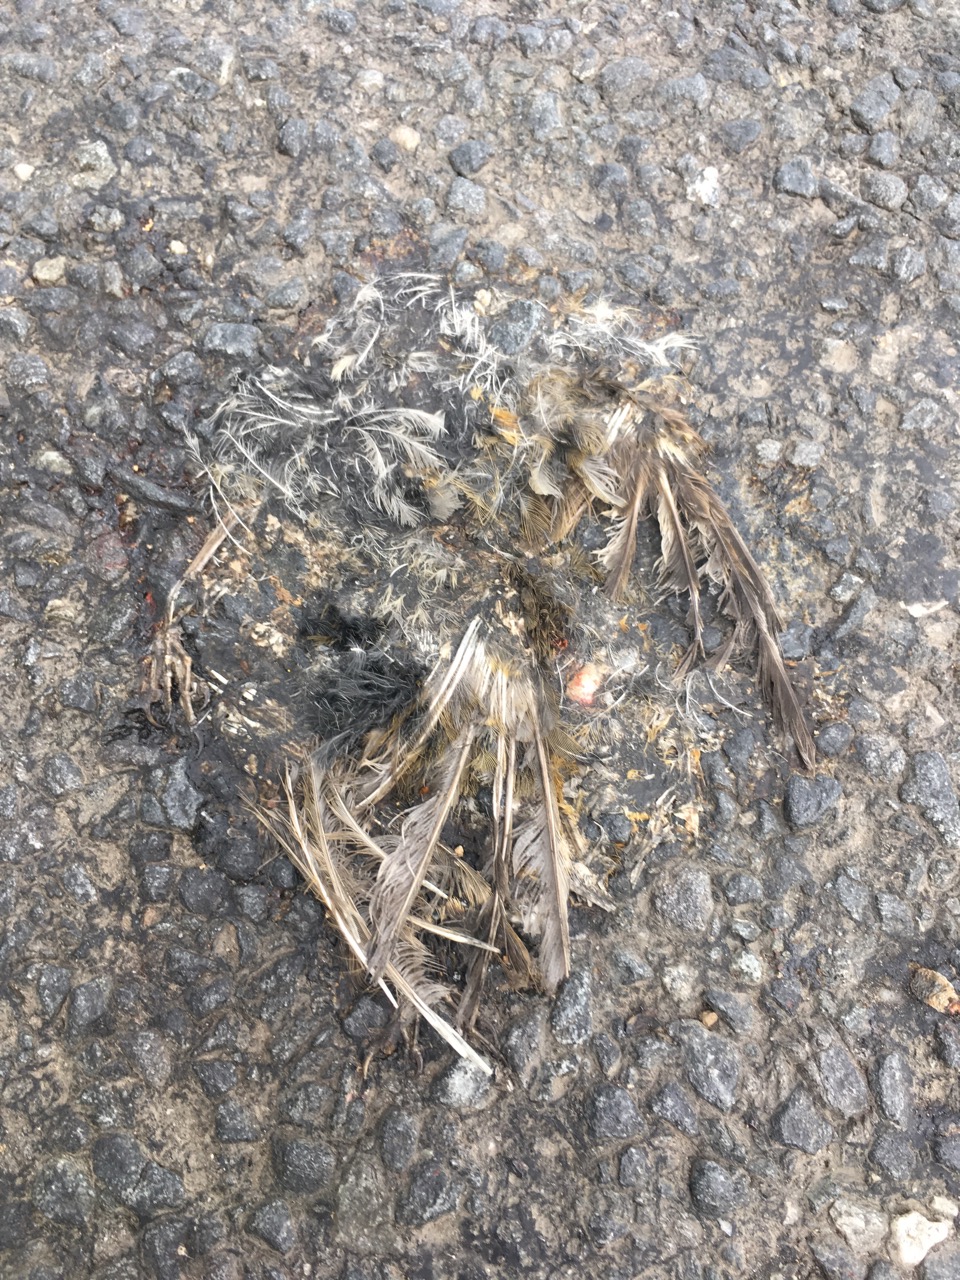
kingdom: Animalia
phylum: Chordata
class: Aves
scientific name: Aves
